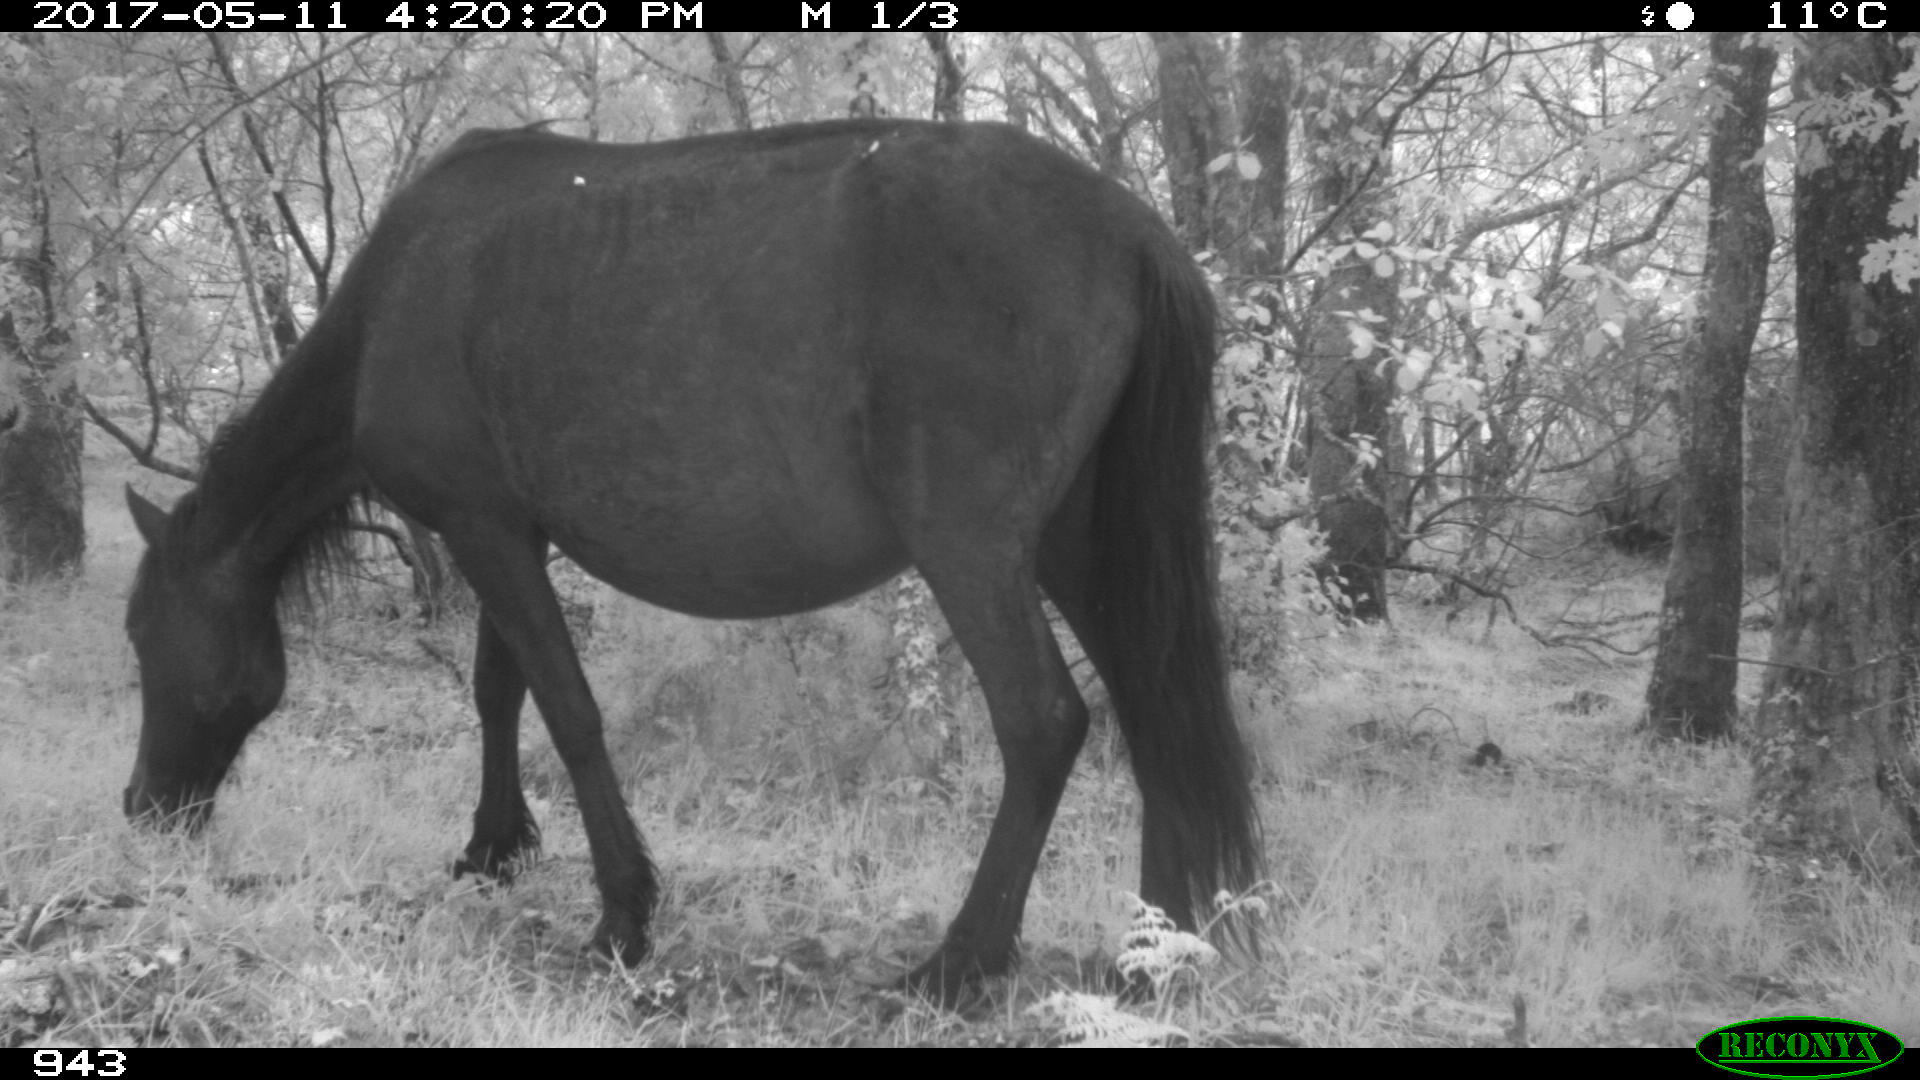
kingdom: Animalia
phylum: Chordata
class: Mammalia
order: Perissodactyla
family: Equidae
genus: Equus
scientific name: Equus caballus
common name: Horse
